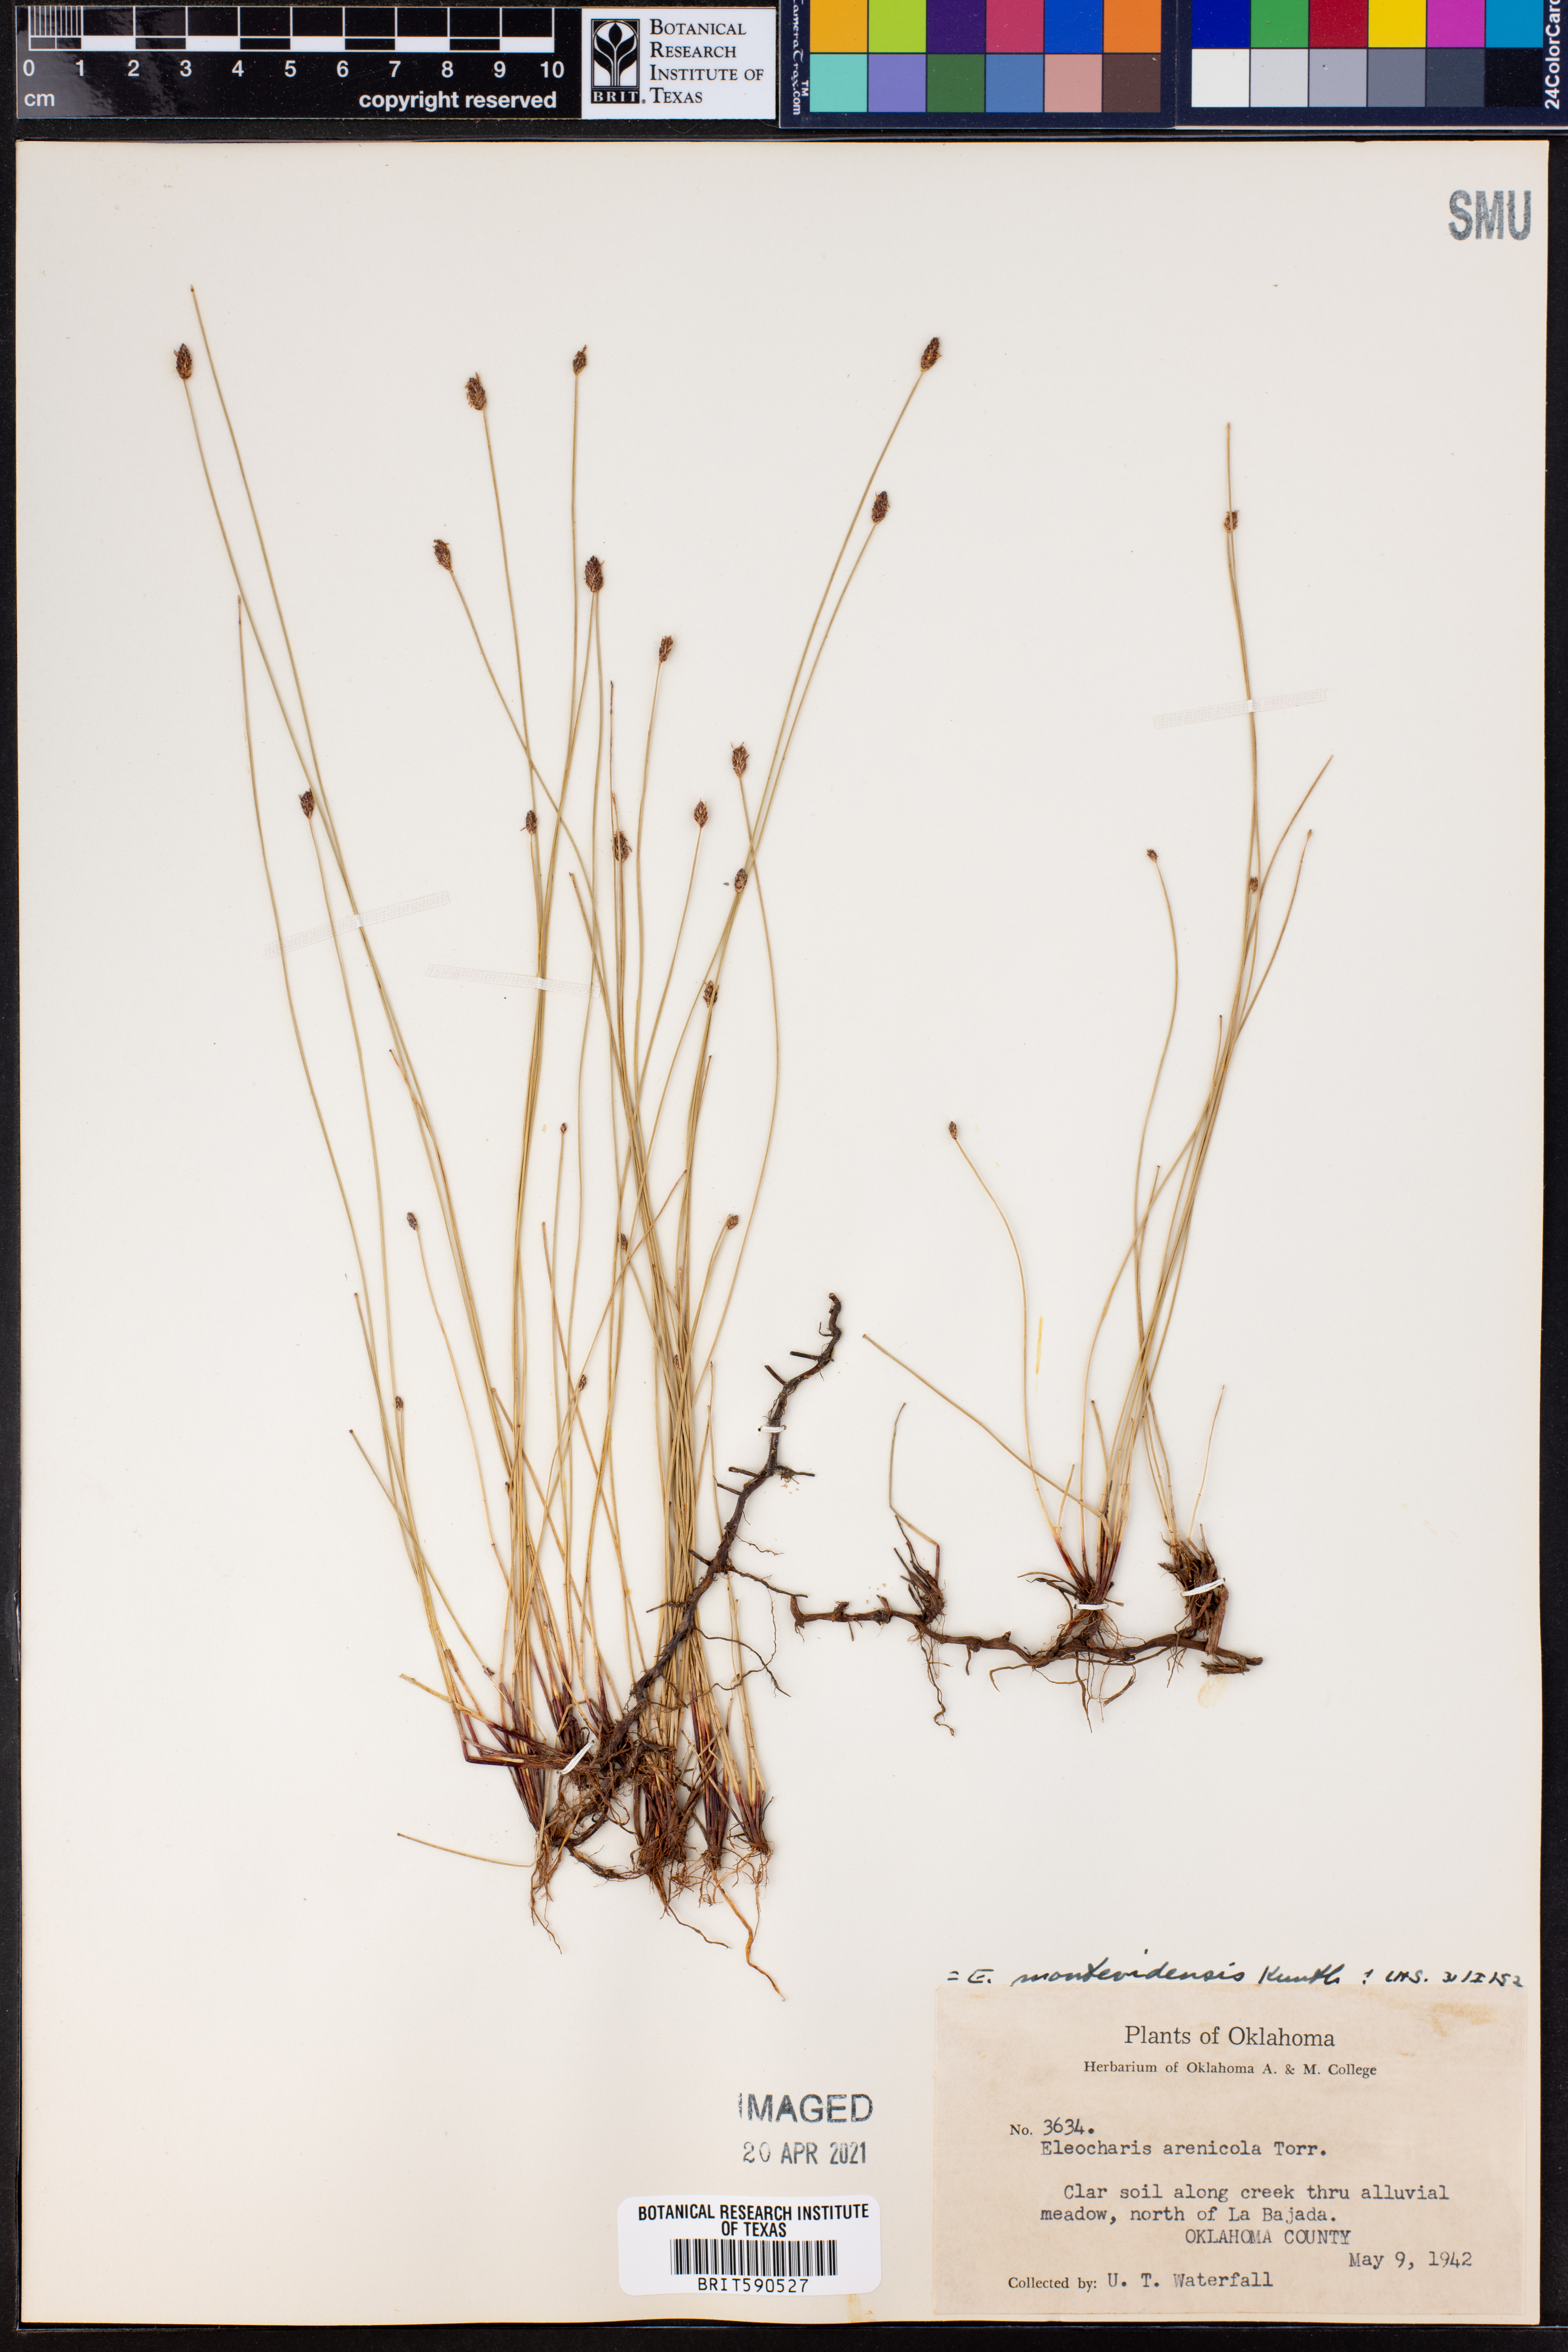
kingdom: Plantae
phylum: Tracheophyta
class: Liliopsida
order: Poales
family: Cyperaceae
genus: Eleocharis
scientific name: Eleocharis montana
